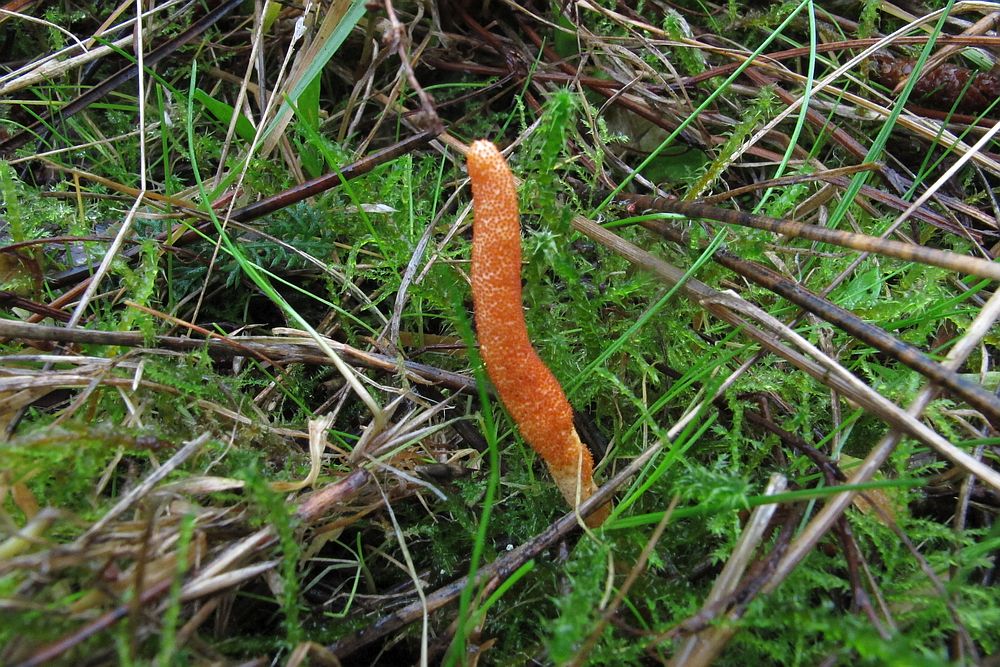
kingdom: Fungi
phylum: Ascomycota
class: Sordariomycetes
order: Hypocreales
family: Cordycipitaceae
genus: Cordyceps
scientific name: Cordyceps militaris
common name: puppe-snyltekølle
